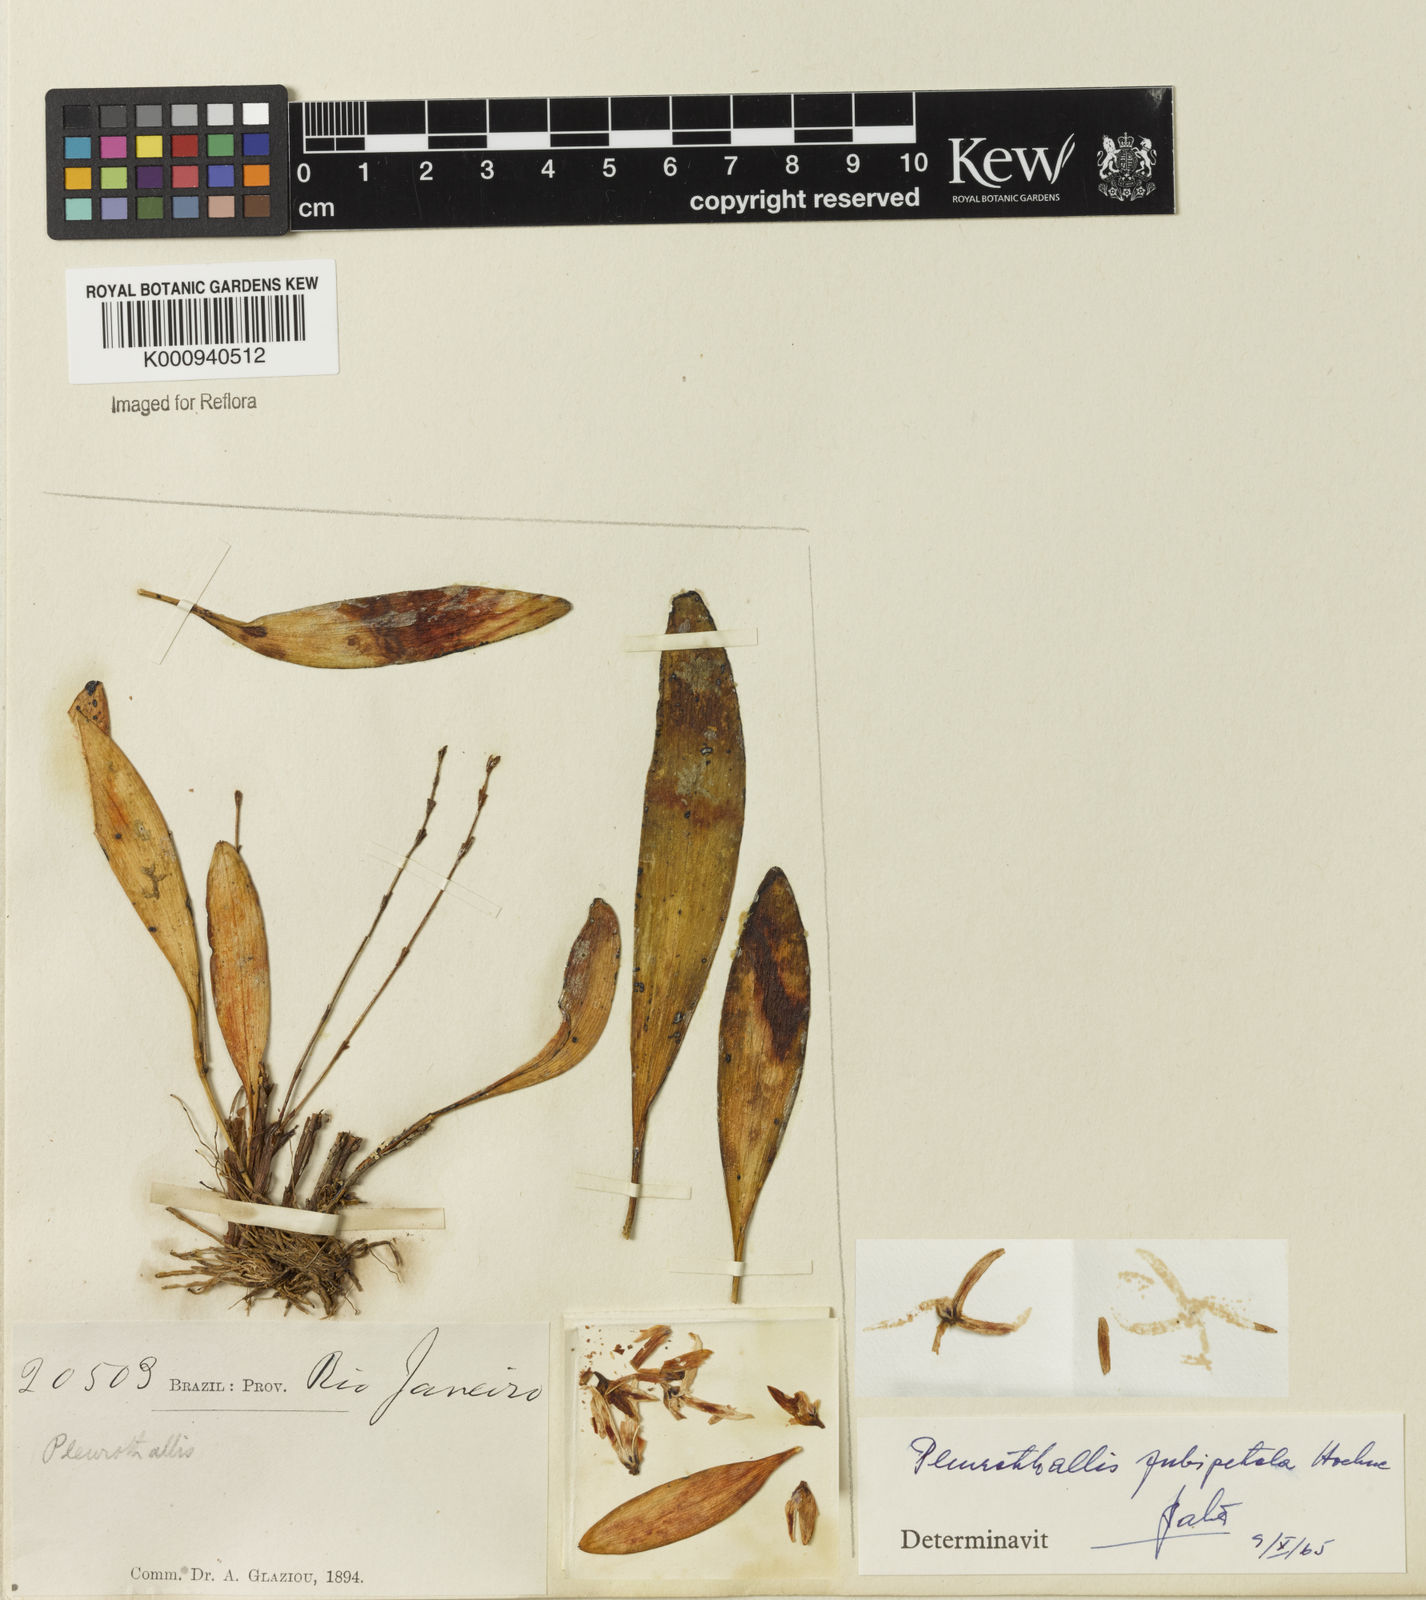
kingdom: Plantae
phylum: Tracheophyta
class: Liliopsida
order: Asparagales
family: Orchidaceae
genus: Anathallis
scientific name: Anathallis pubipetala
